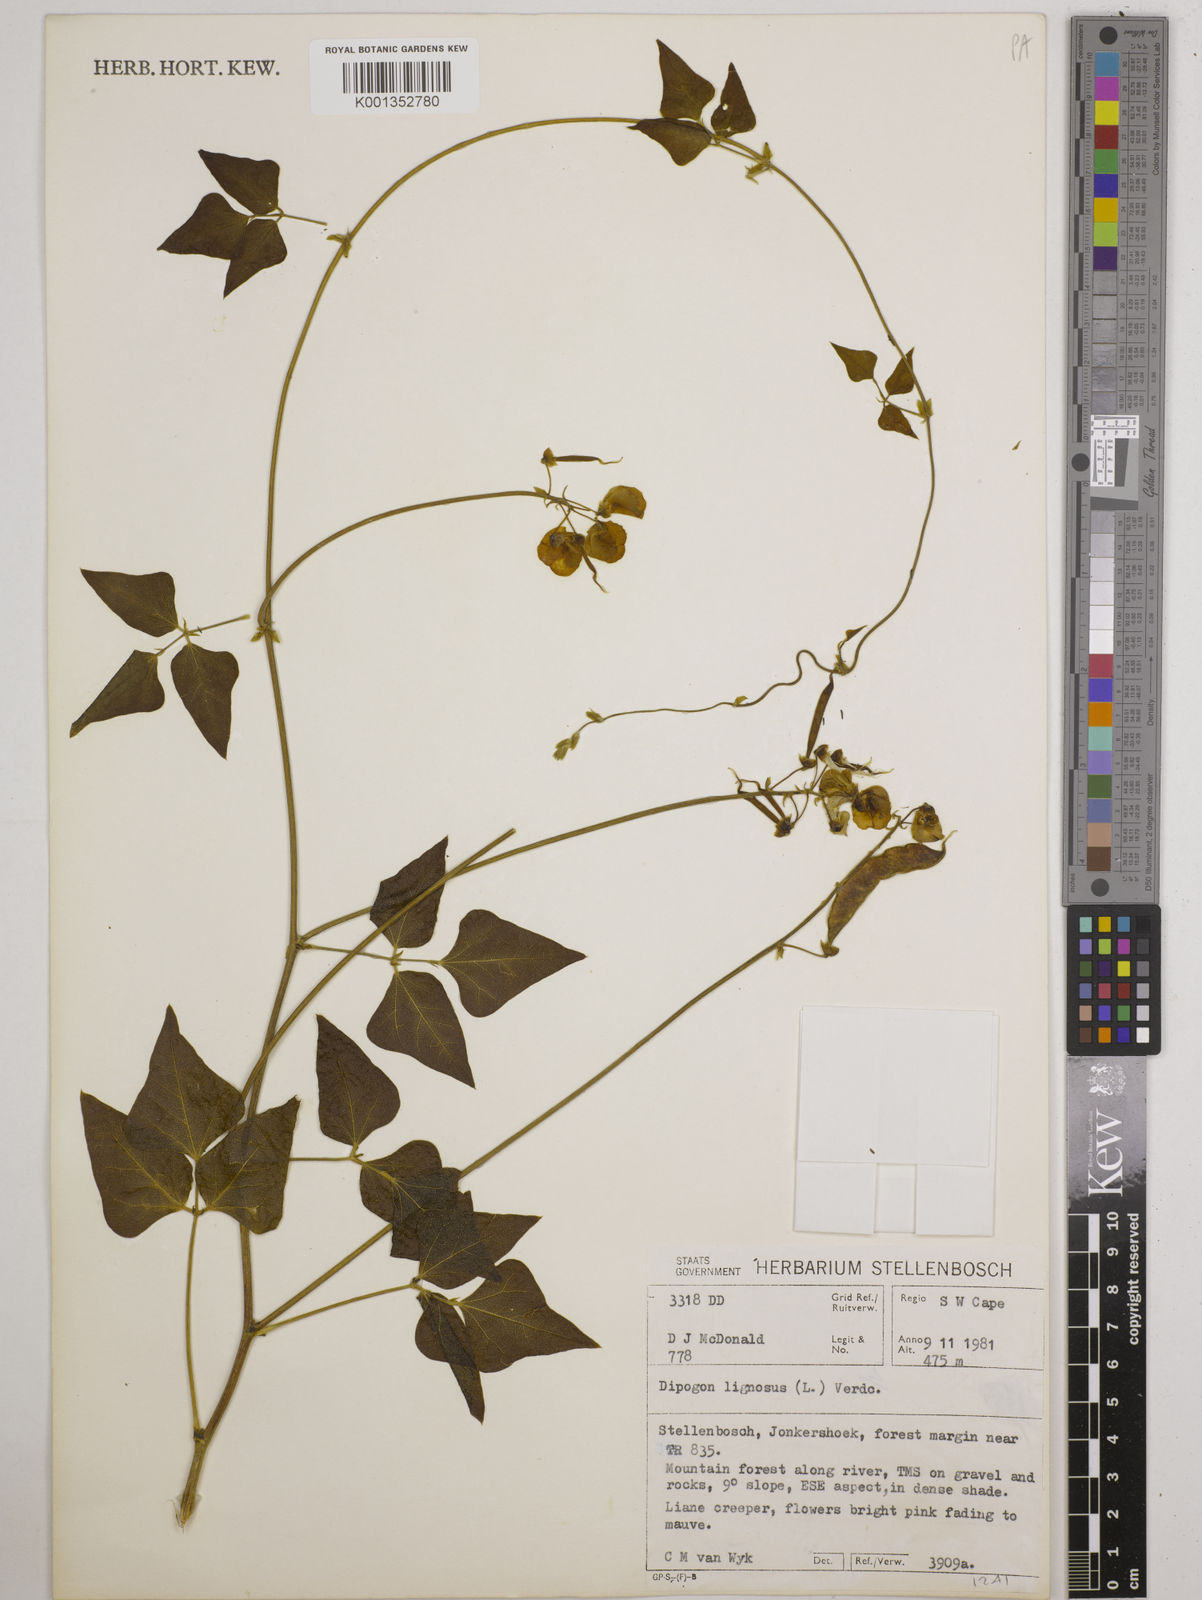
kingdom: Plantae
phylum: Tracheophyta
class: Magnoliopsida
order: Fabales
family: Fabaceae
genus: Dipogon
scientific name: Dipogon lignosus
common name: Okie bean
